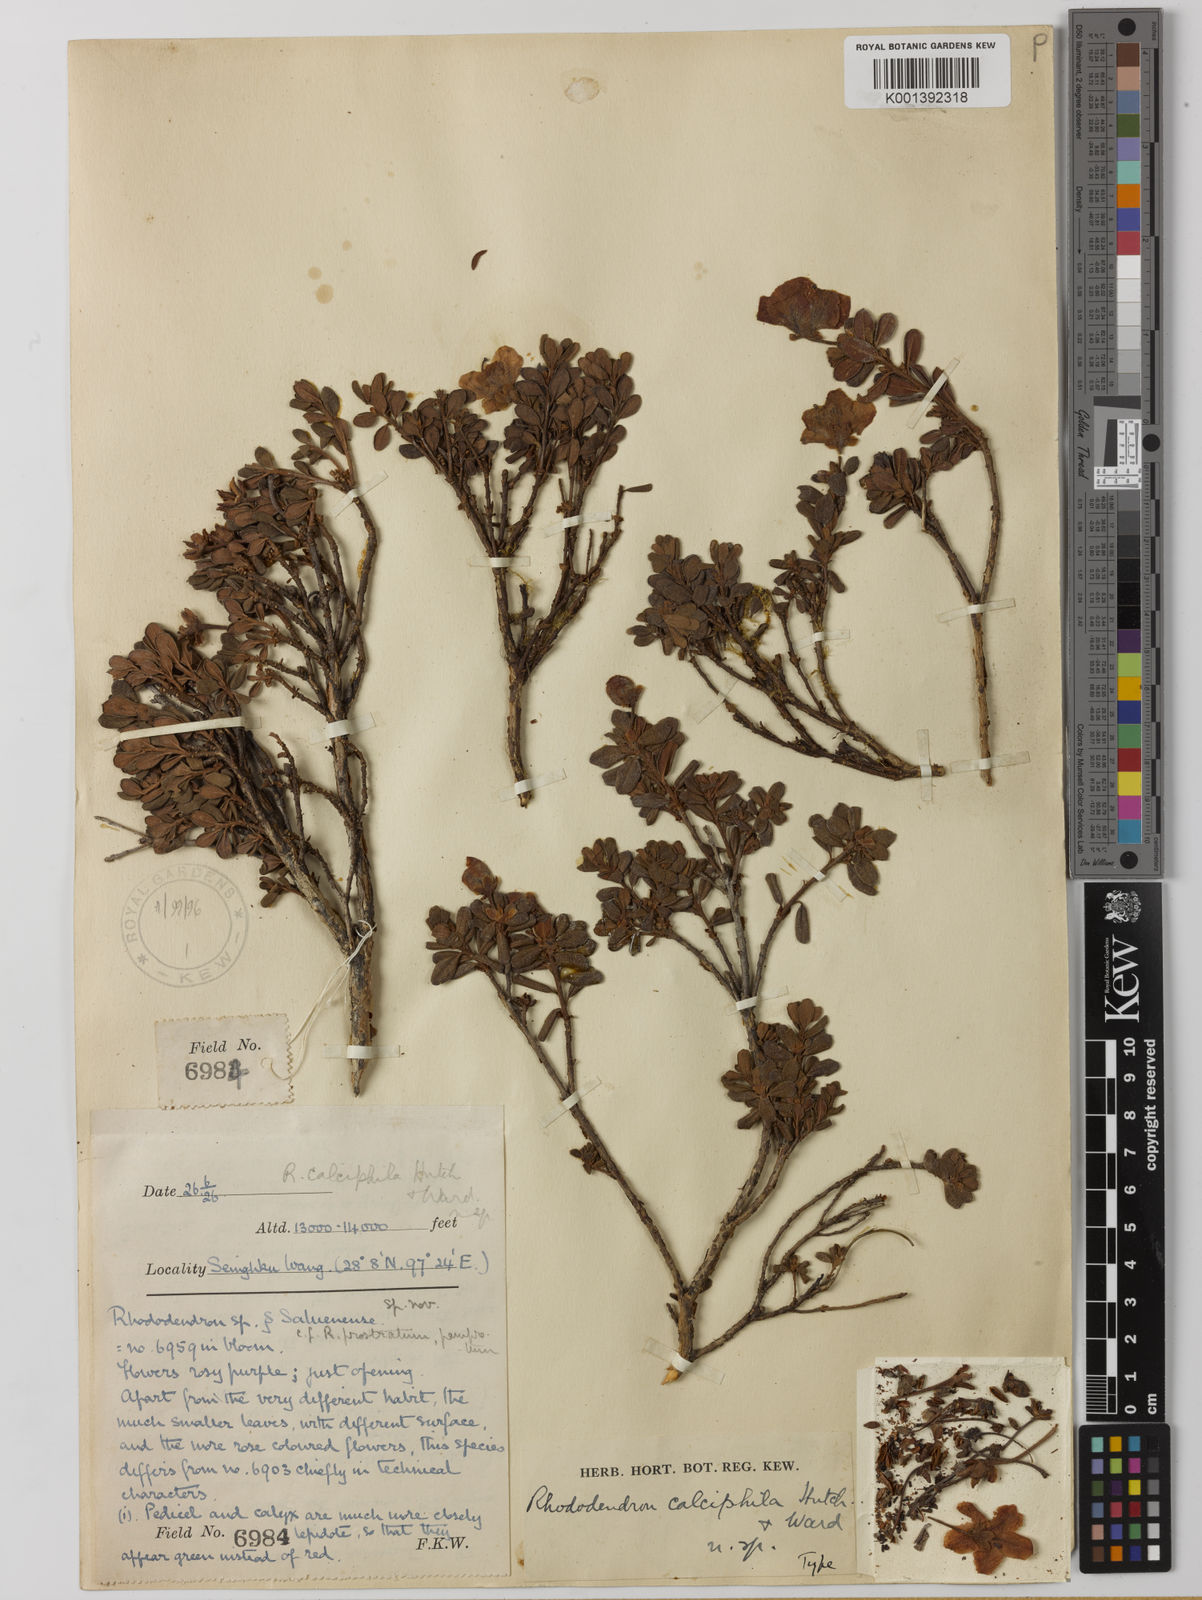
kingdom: Plantae
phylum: Tracheophyta
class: Magnoliopsida
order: Ericales
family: Ericaceae
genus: Rhododendron
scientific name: Rhododendron calostrotum
